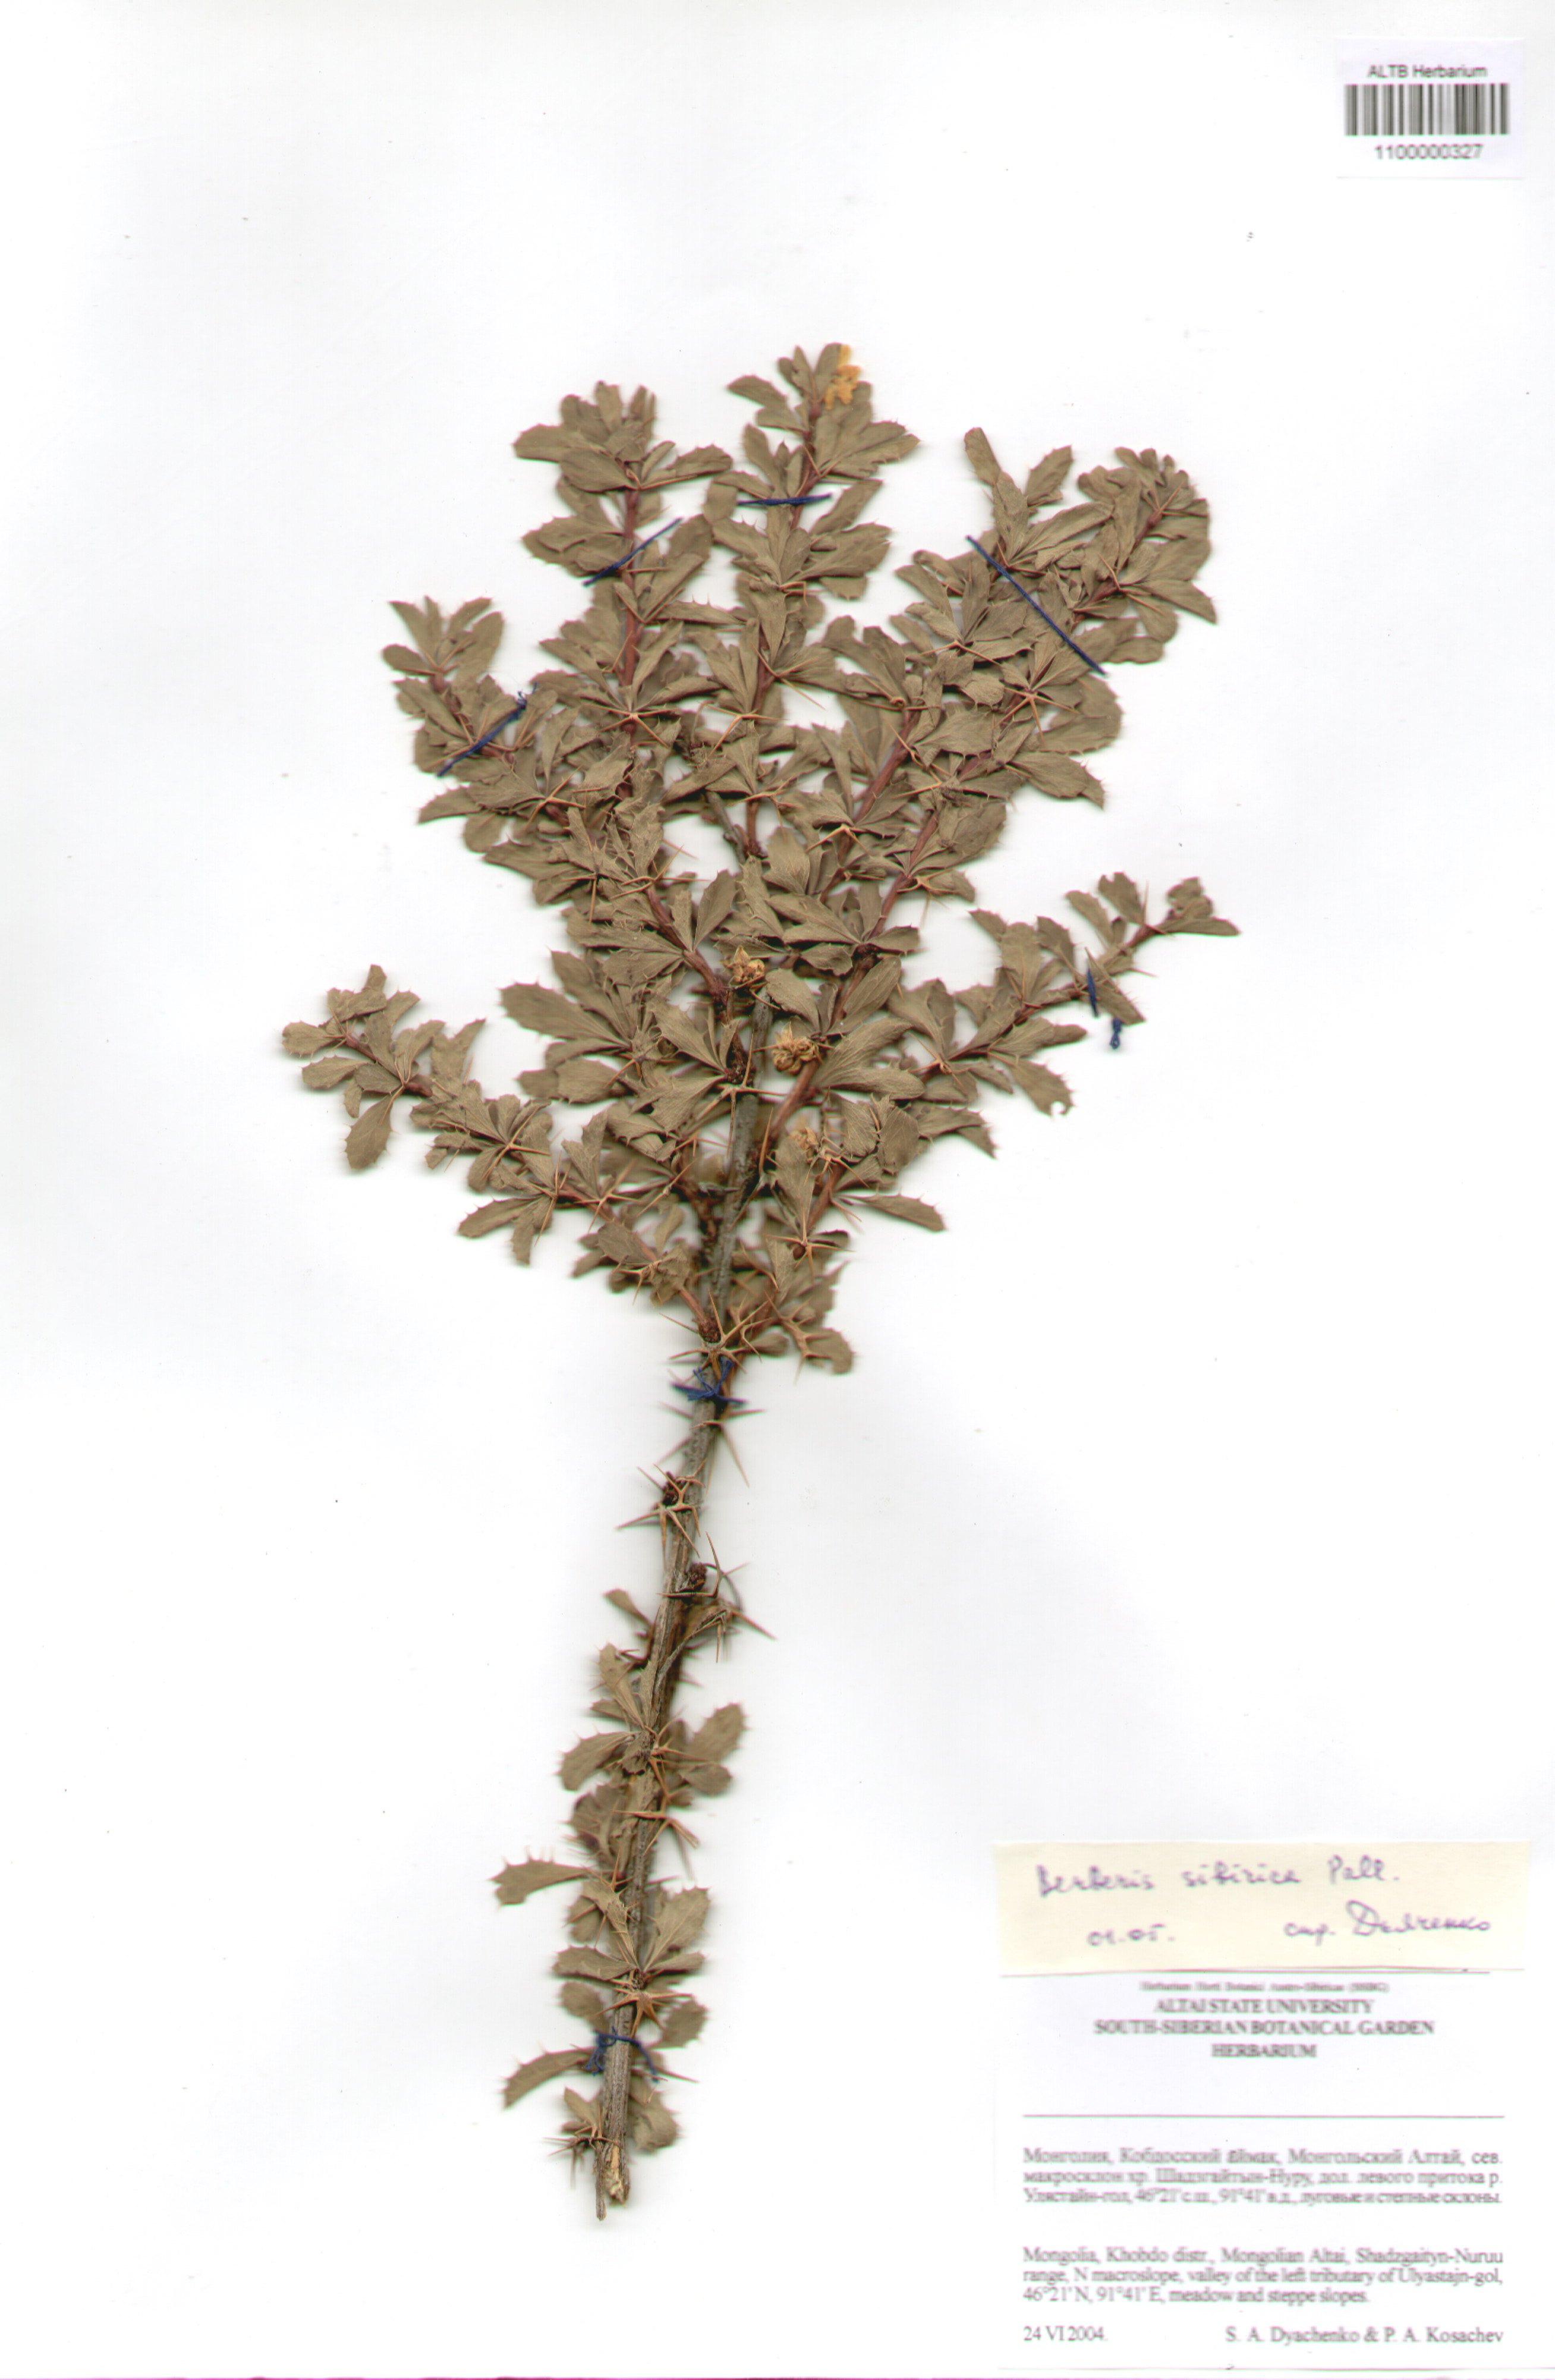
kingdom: Plantae
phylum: Tracheophyta
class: Magnoliopsida
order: Ranunculales
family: Berberidaceae
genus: Berberis
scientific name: Berberis sibirica
